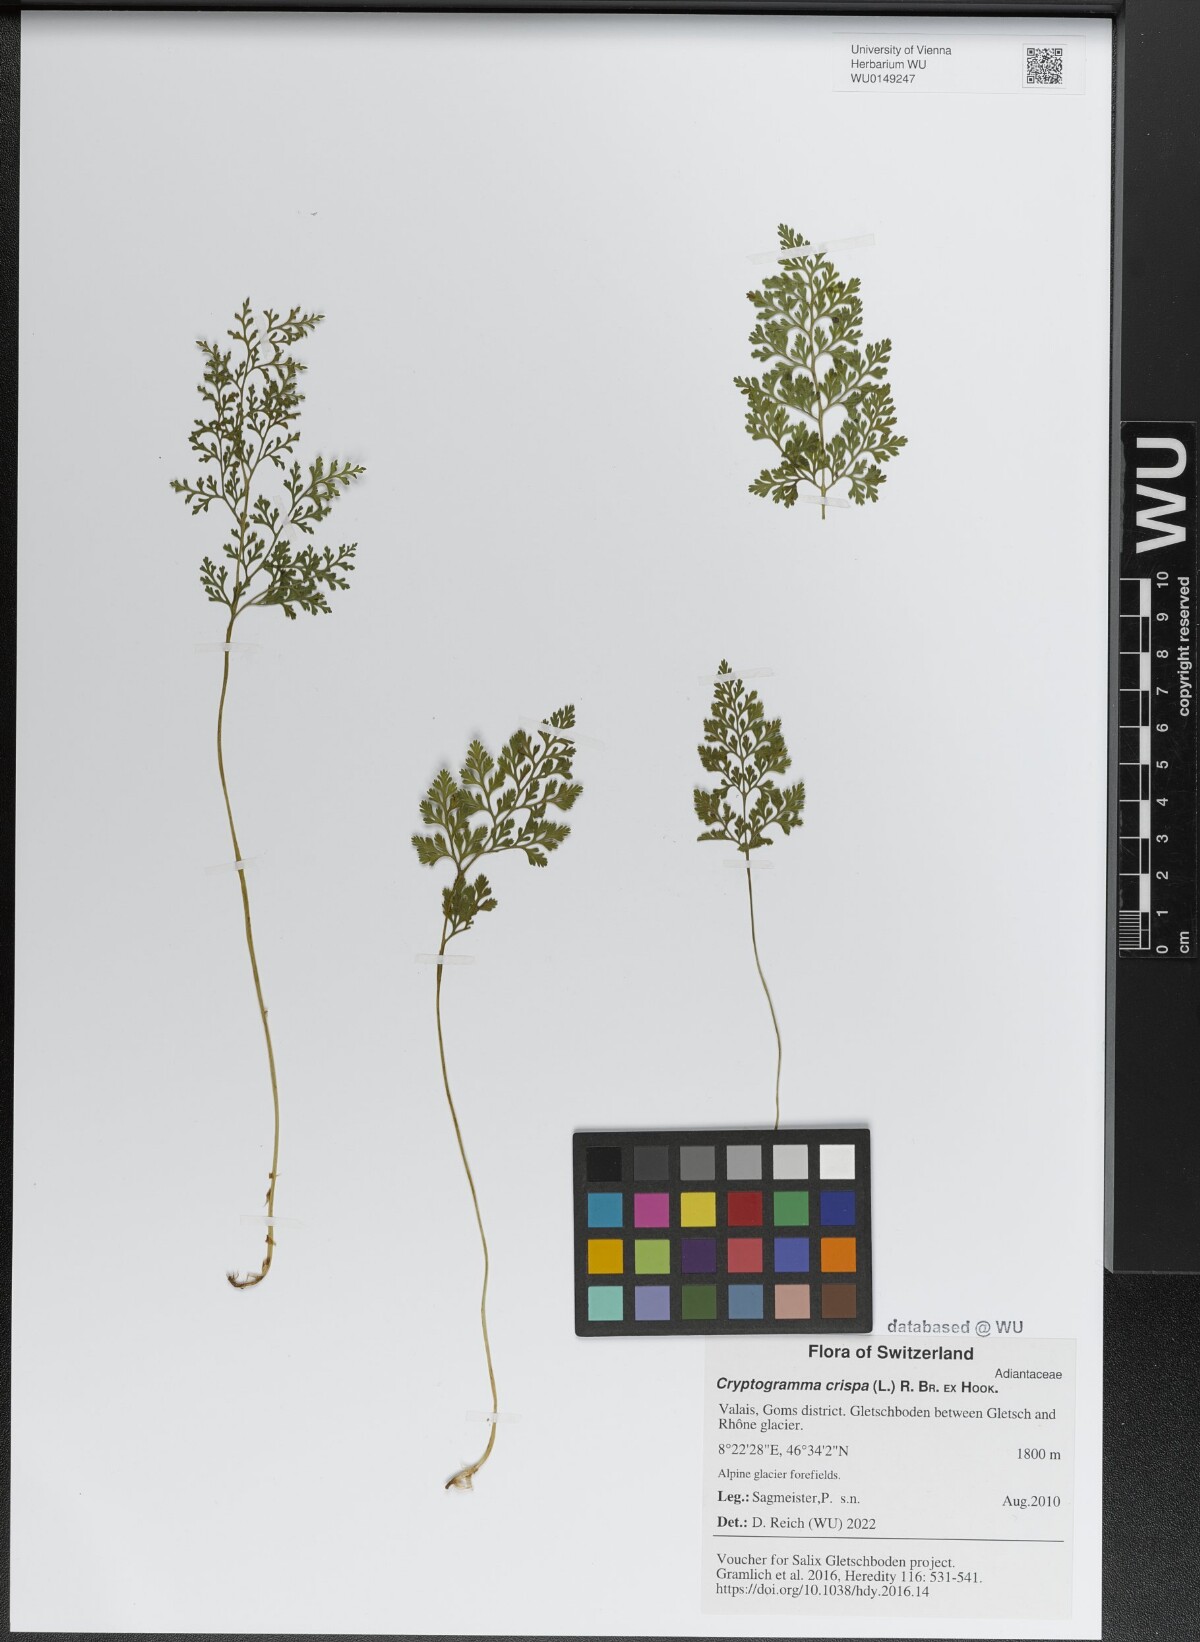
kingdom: Plantae
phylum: Tracheophyta
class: Polypodiopsida
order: Polypodiales
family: Pteridaceae
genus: Cryptogramma
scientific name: Cryptogramma crispa
